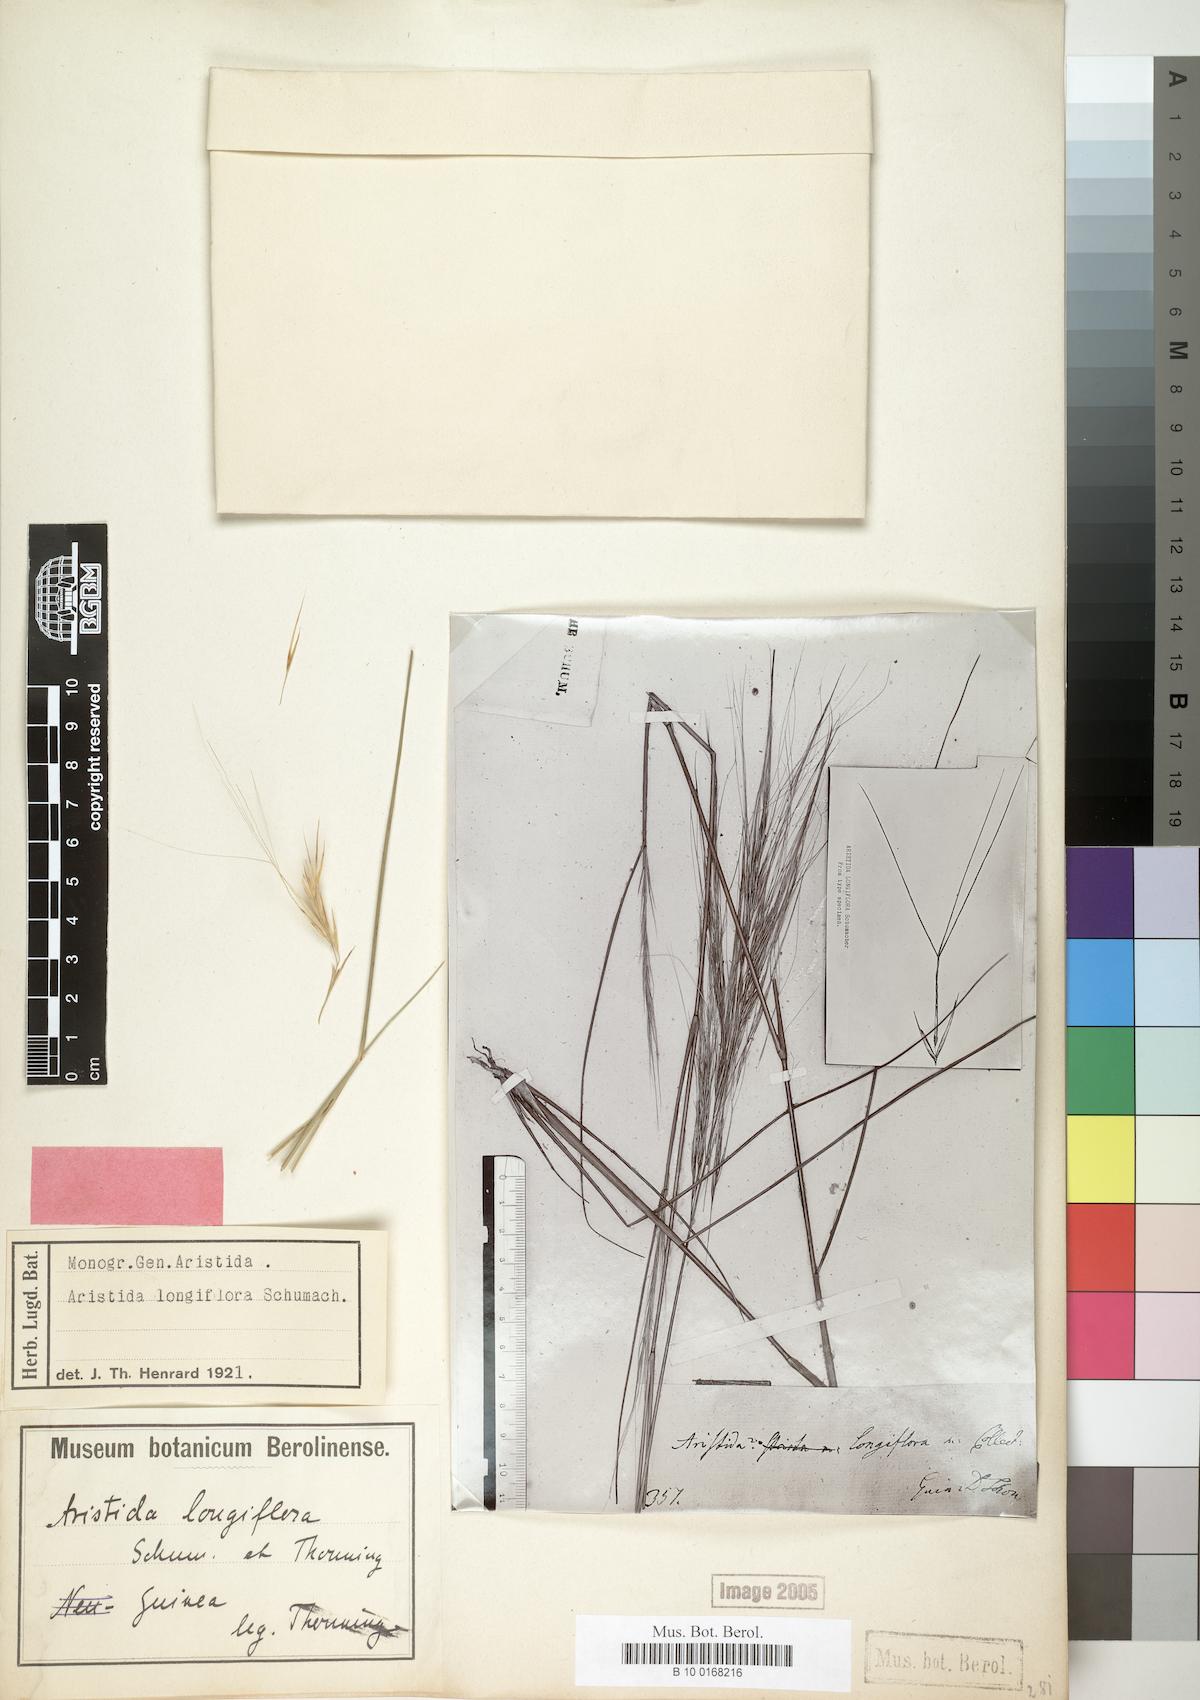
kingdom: Plantae
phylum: Tracheophyta
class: Liliopsida
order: Poales
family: Poaceae
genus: Aristida
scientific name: Aristida sieberiana
